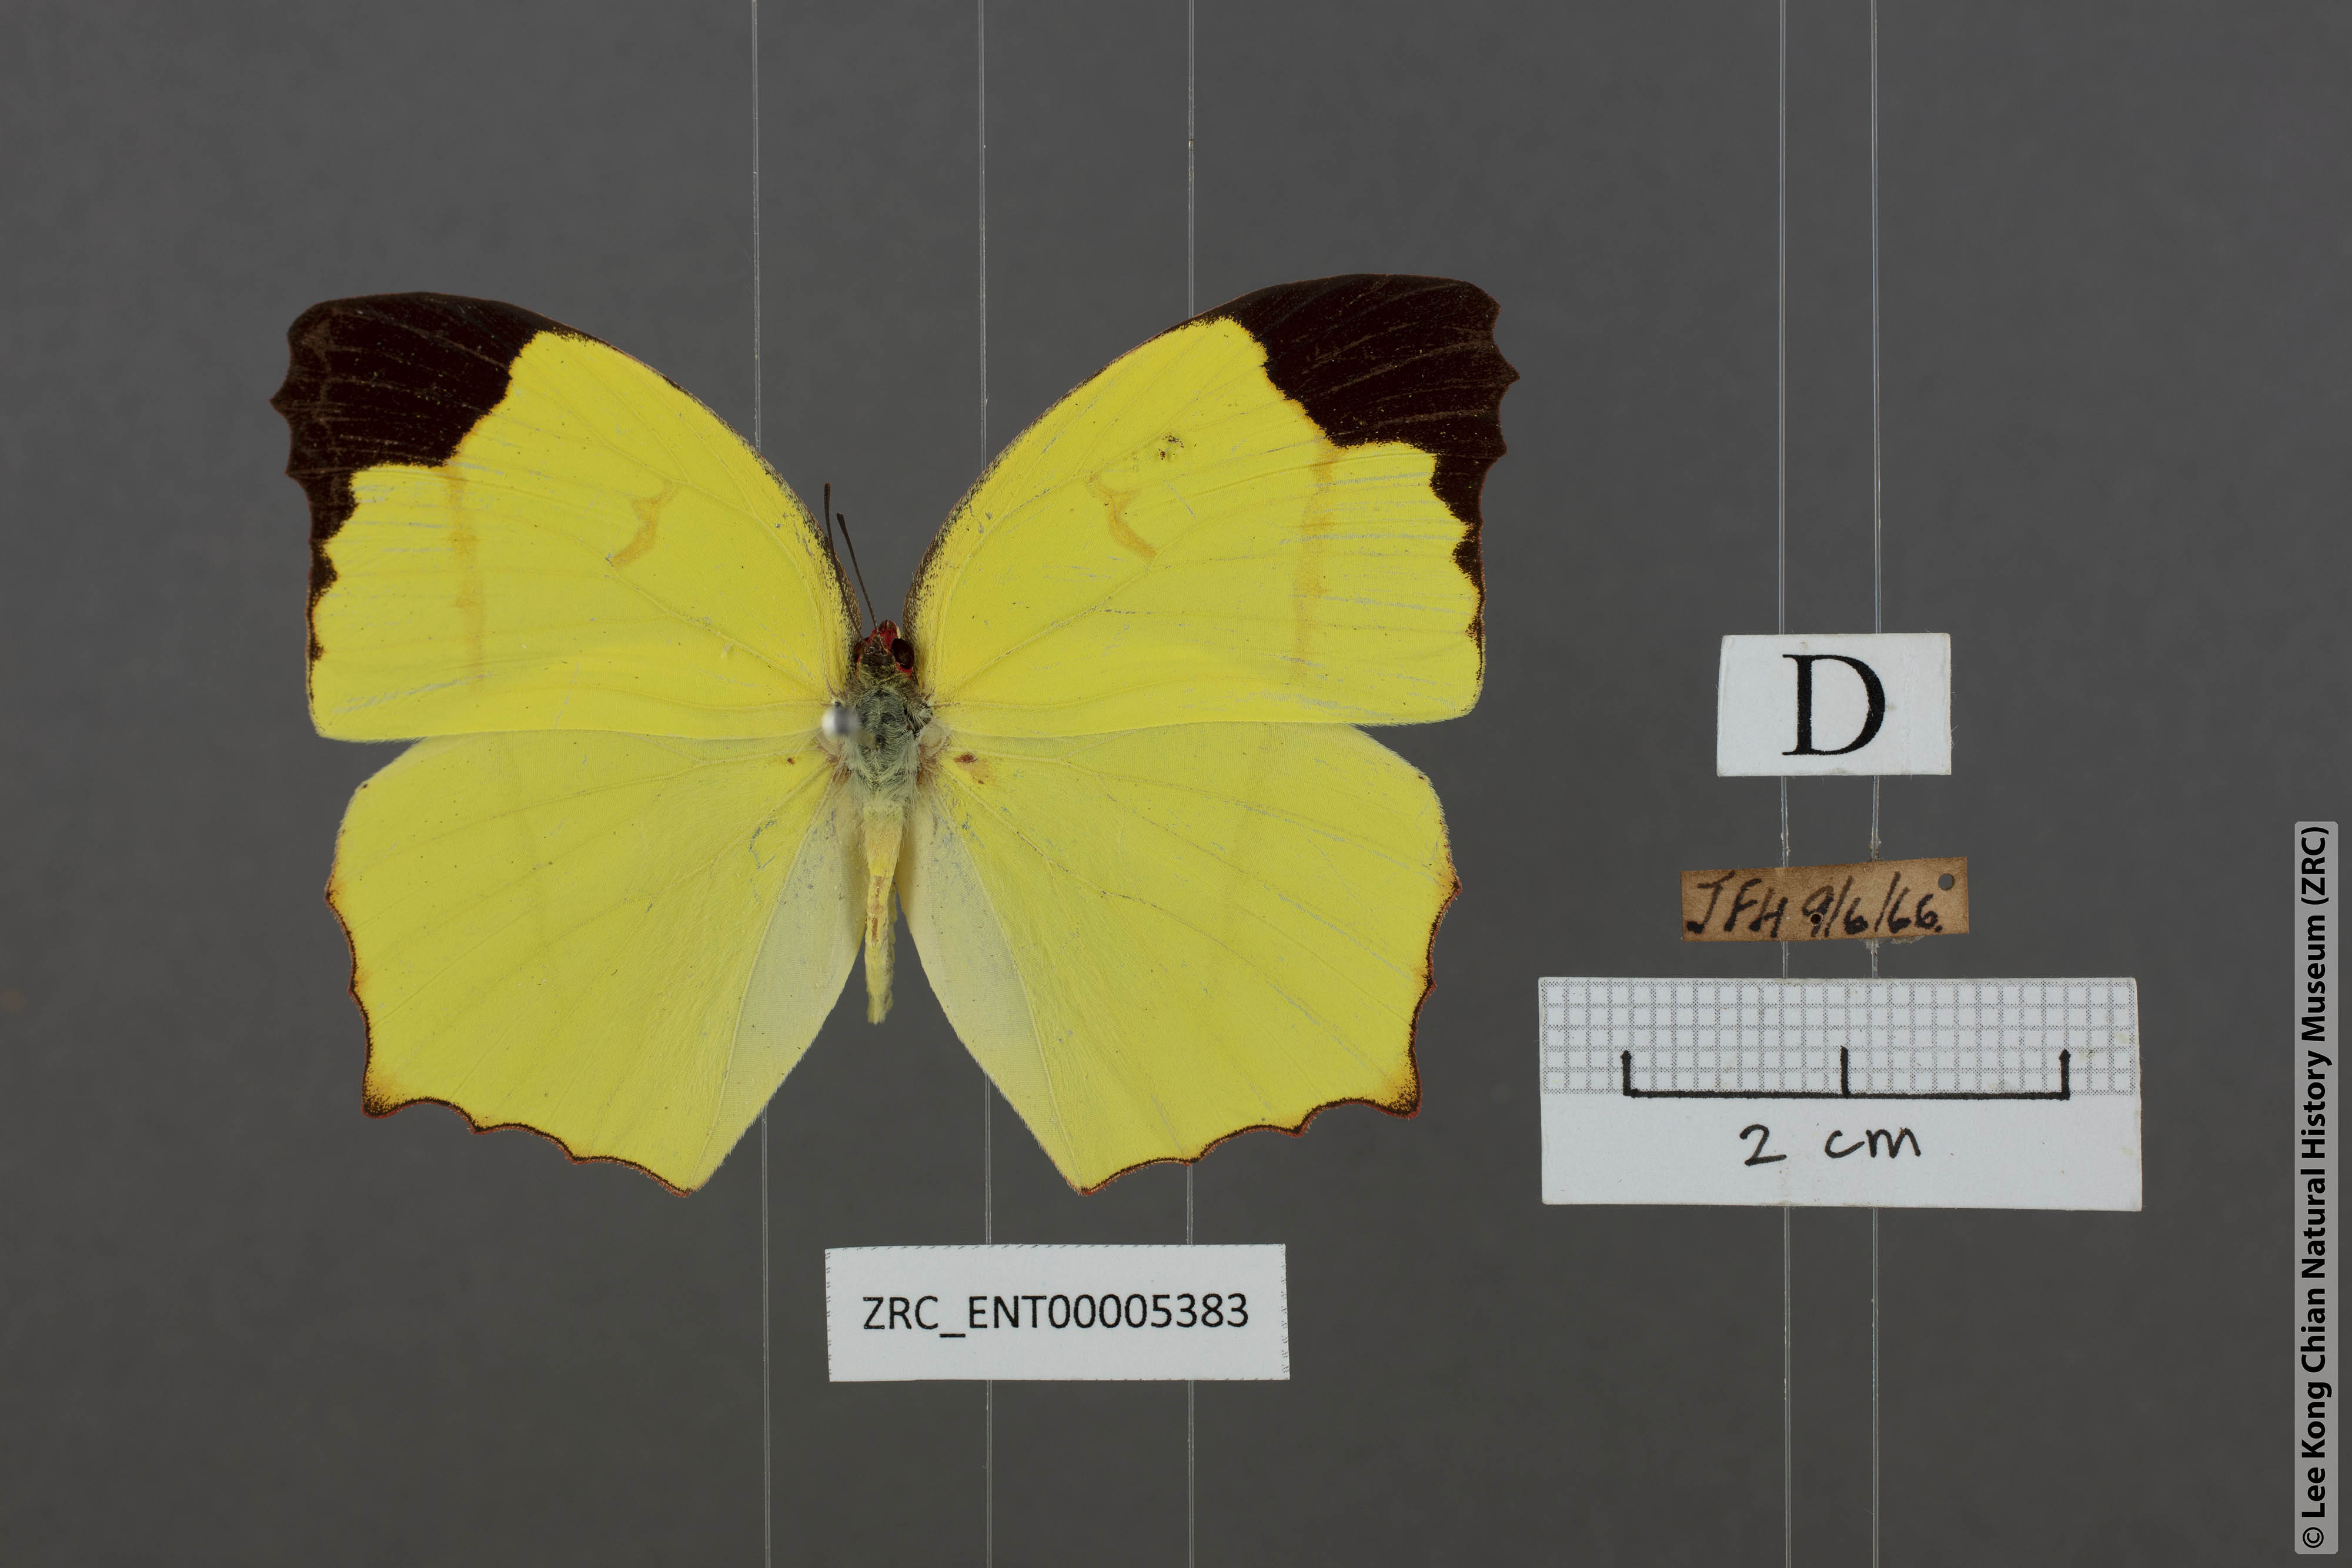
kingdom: Animalia
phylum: Arthropoda
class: Insecta
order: Lepidoptera
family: Pieridae
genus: Dercas
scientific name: Dercas verhuelli
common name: Tailed sulphur
